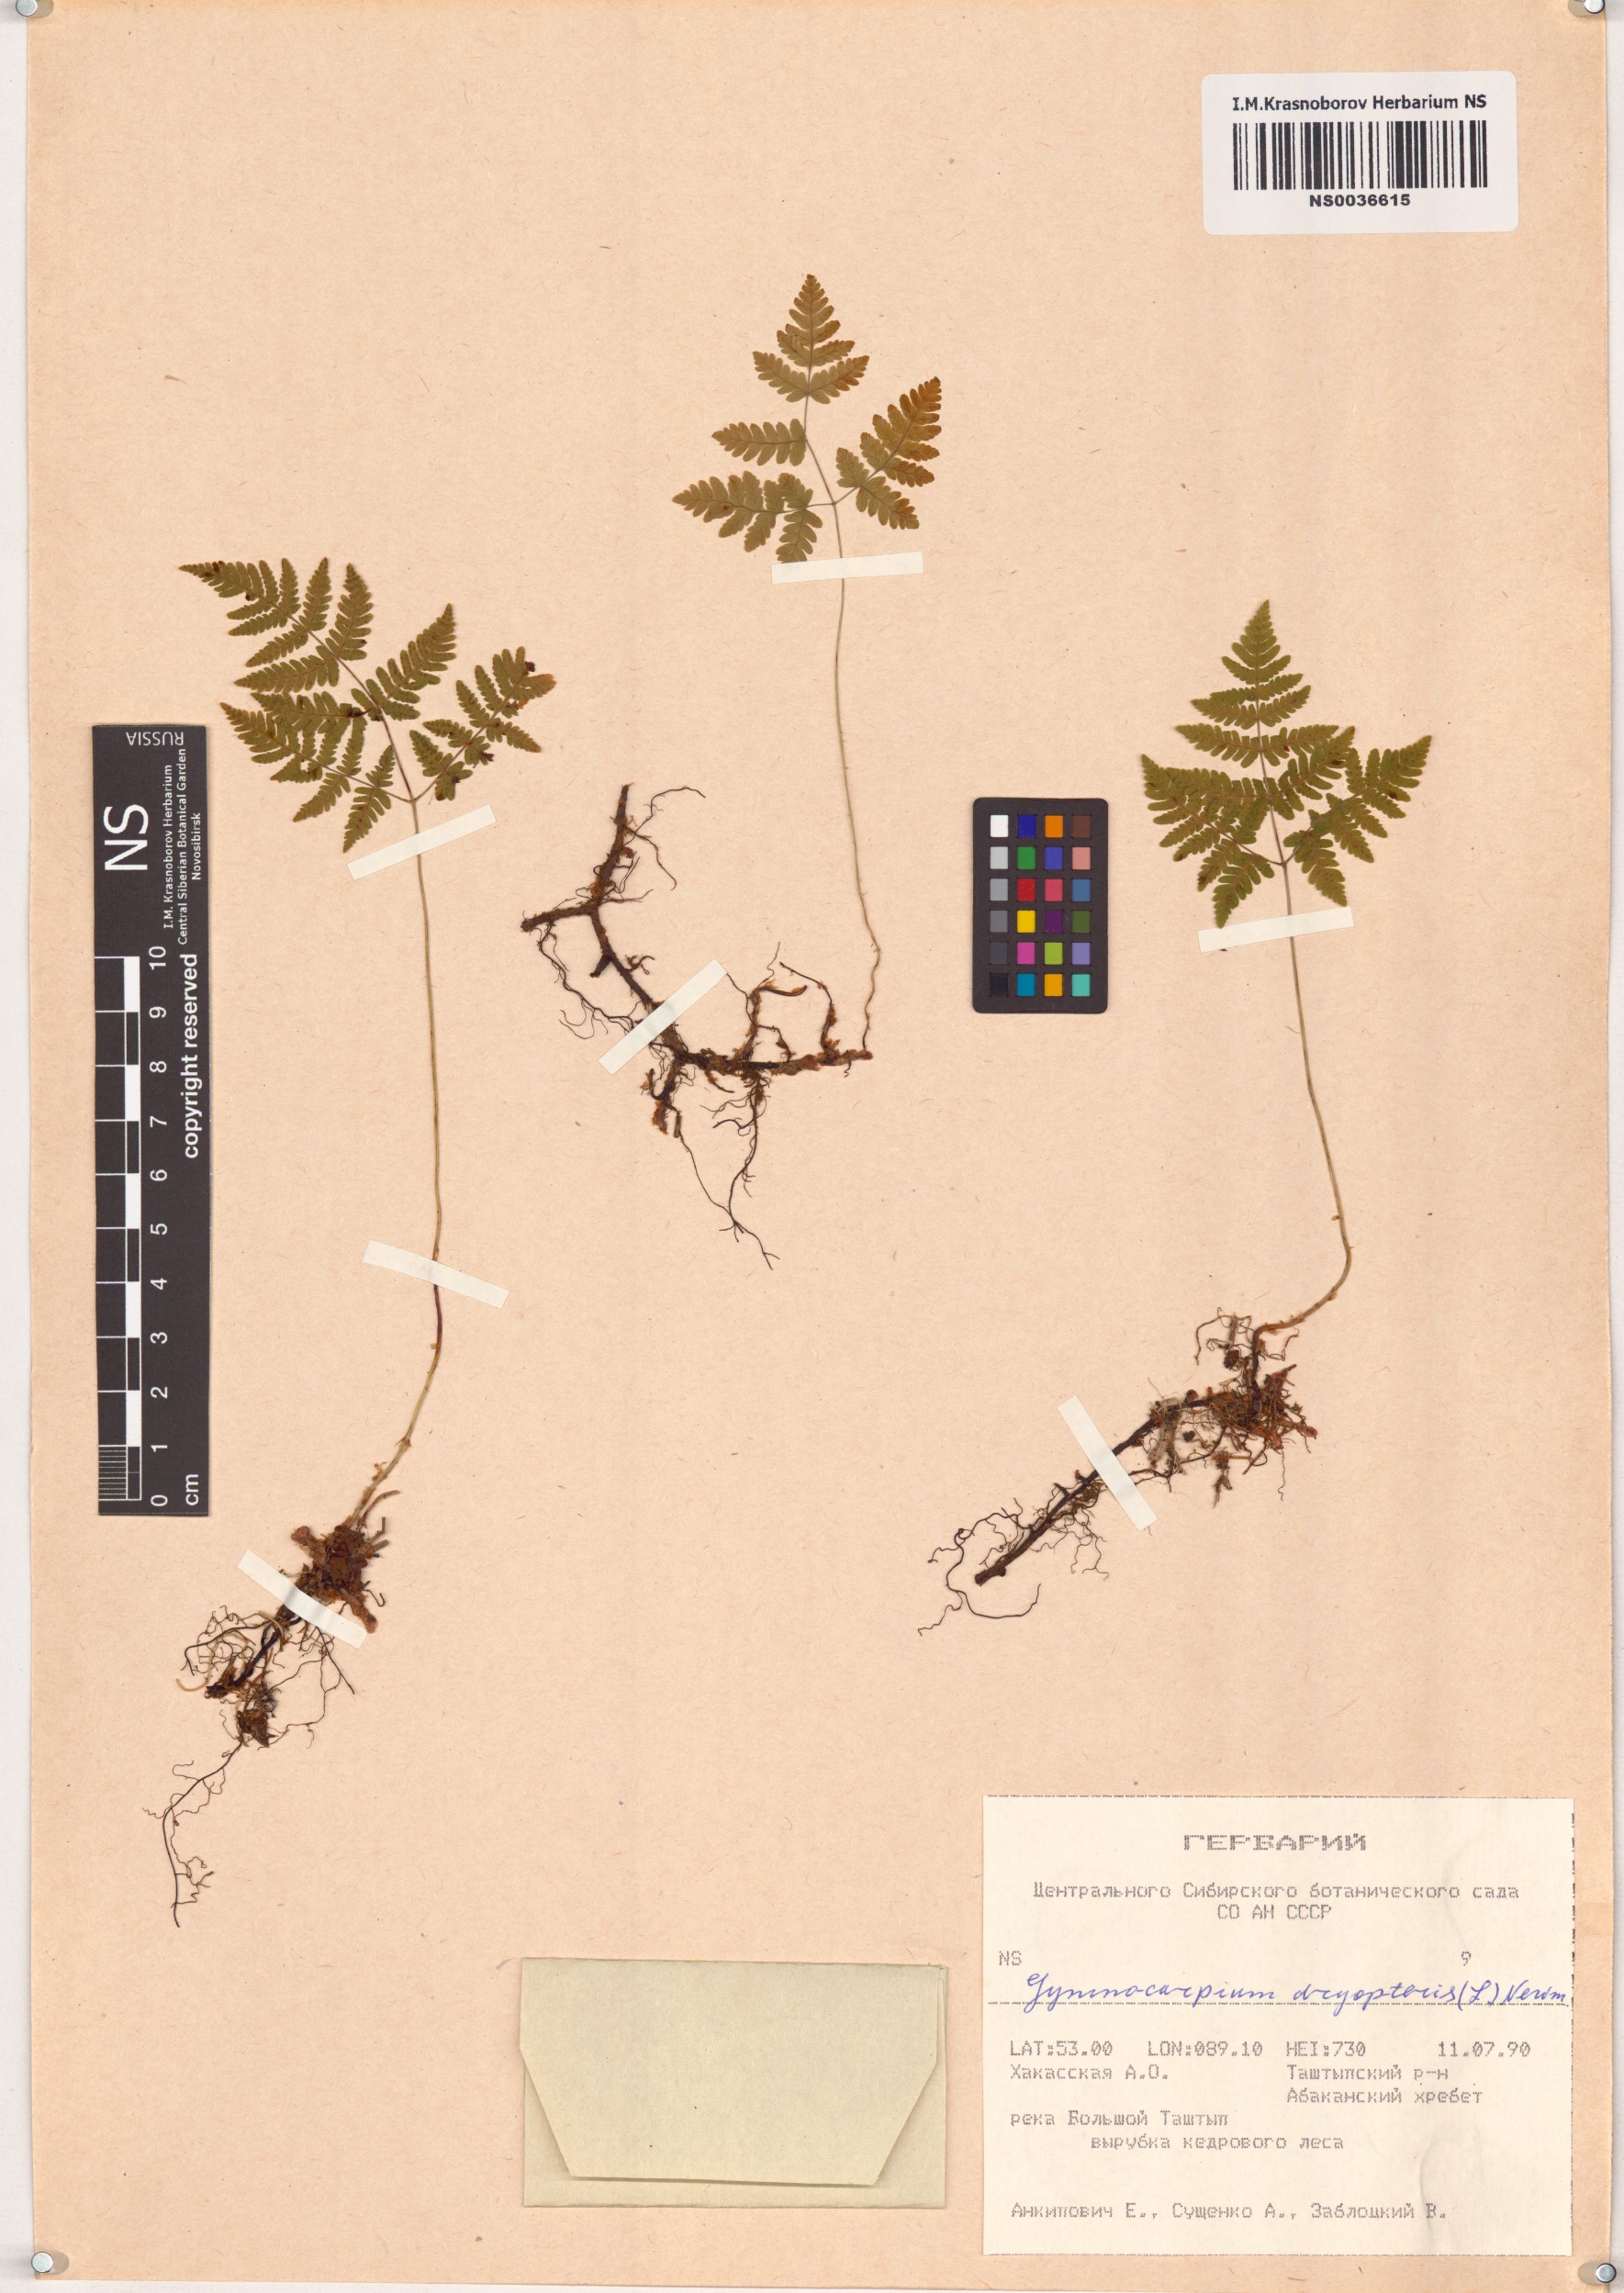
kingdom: Plantae
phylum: Tracheophyta
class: Polypodiopsida
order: Polypodiales
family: Cystopteridaceae
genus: Gymnocarpium
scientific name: Gymnocarpium dryopteris
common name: Oak fern
